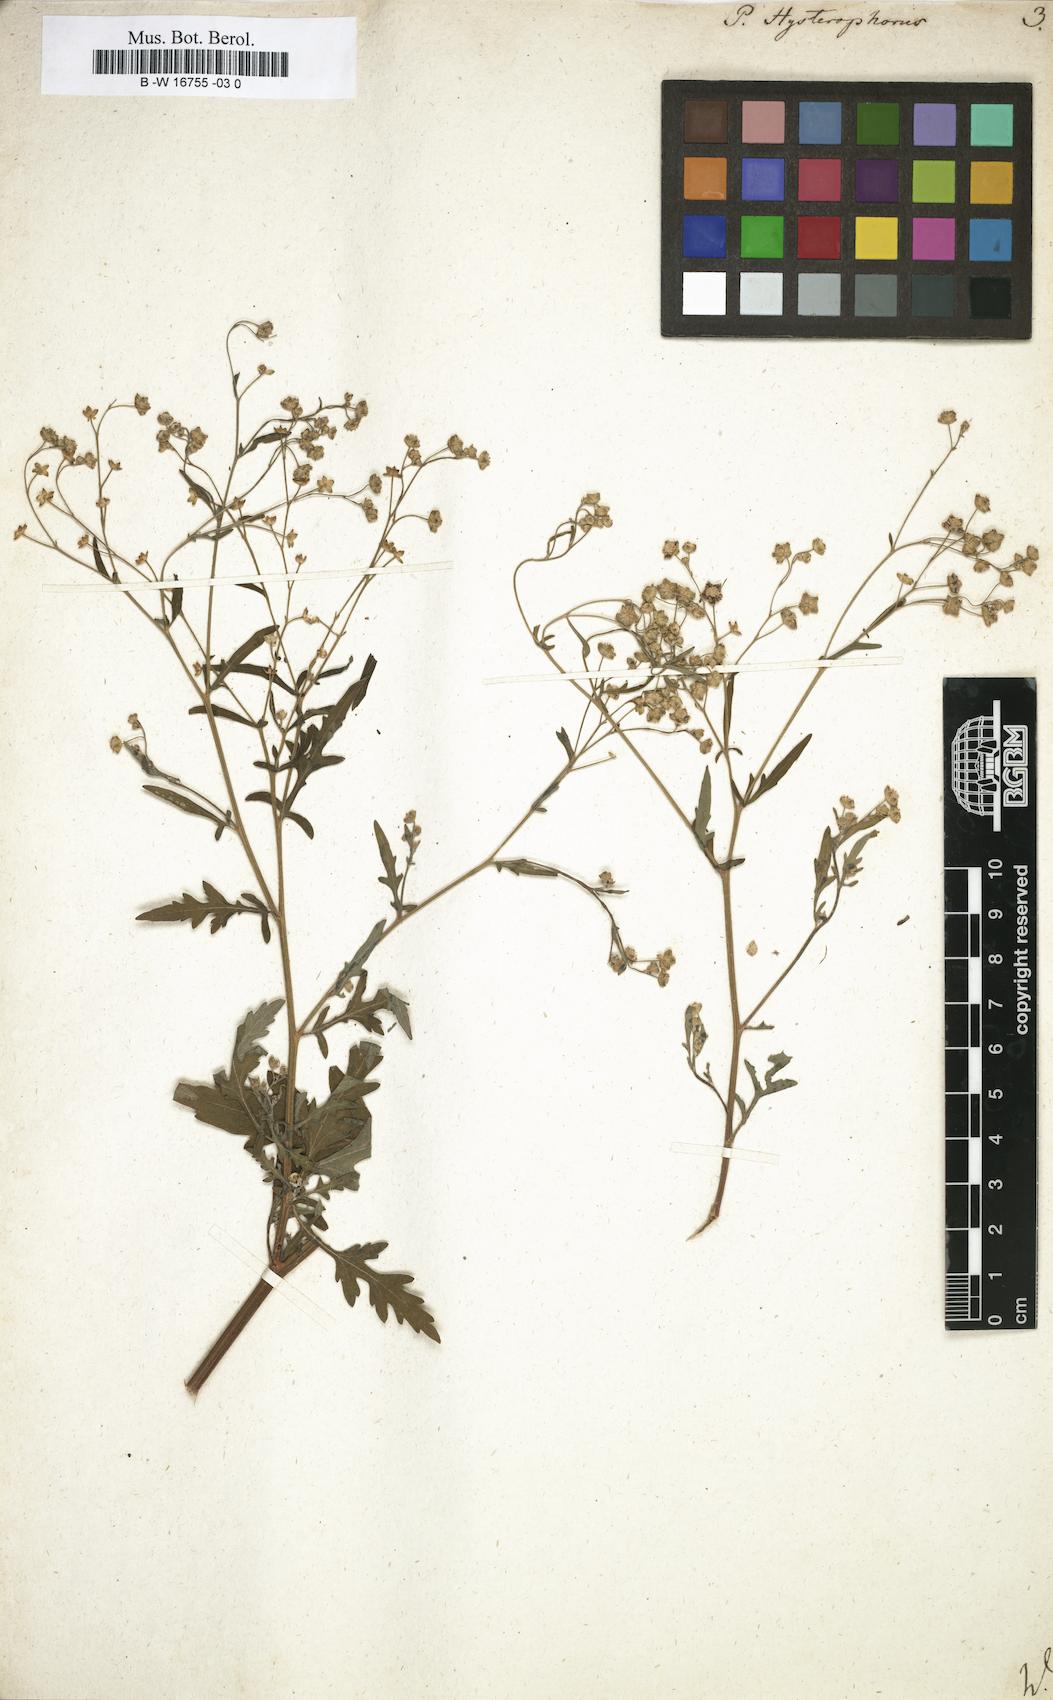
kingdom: Plantae
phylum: Tracheophyta
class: Magnoliopsida
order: Asterales
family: Asteraceae
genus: Parthenium
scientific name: Parthenium hysterophorus
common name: Santa maria feverfew
